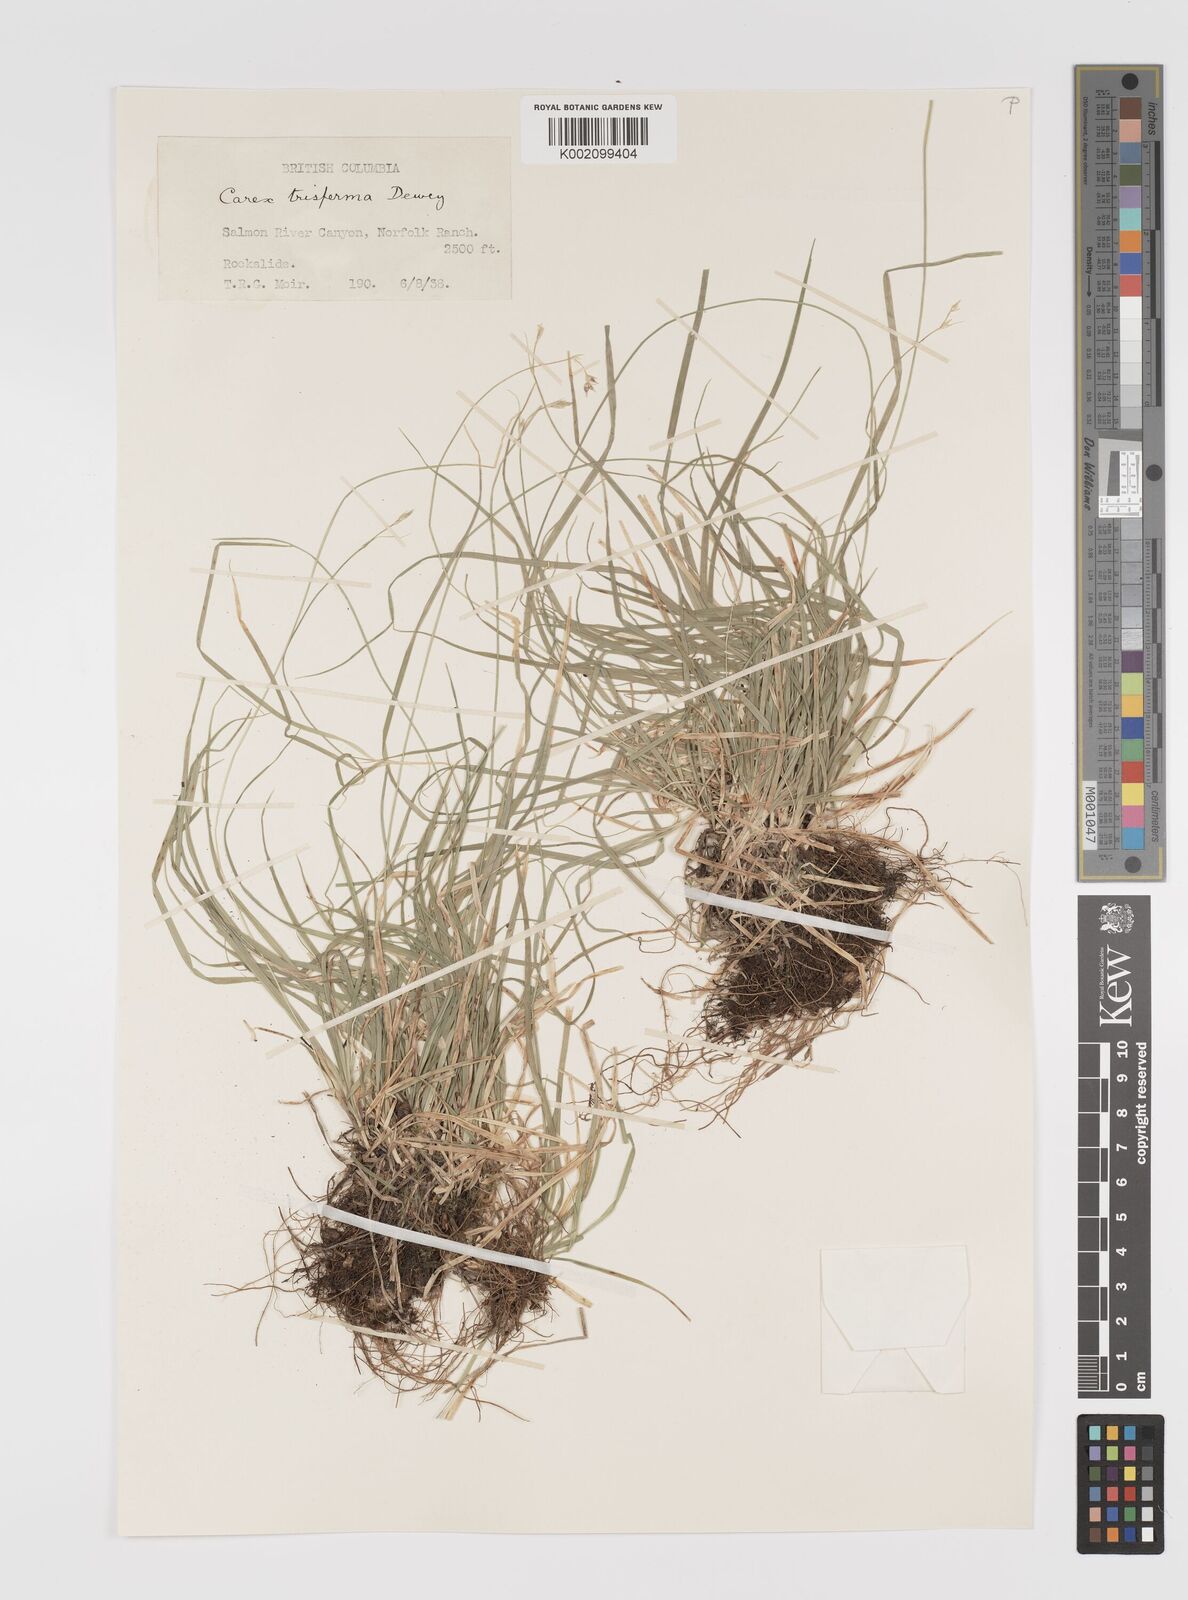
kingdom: Plantae
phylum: Tracheophyta
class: Liliopsida
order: Poales
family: Cyperaceae
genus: Carex
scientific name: Carex trisperma
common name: Three-seeded sedge
